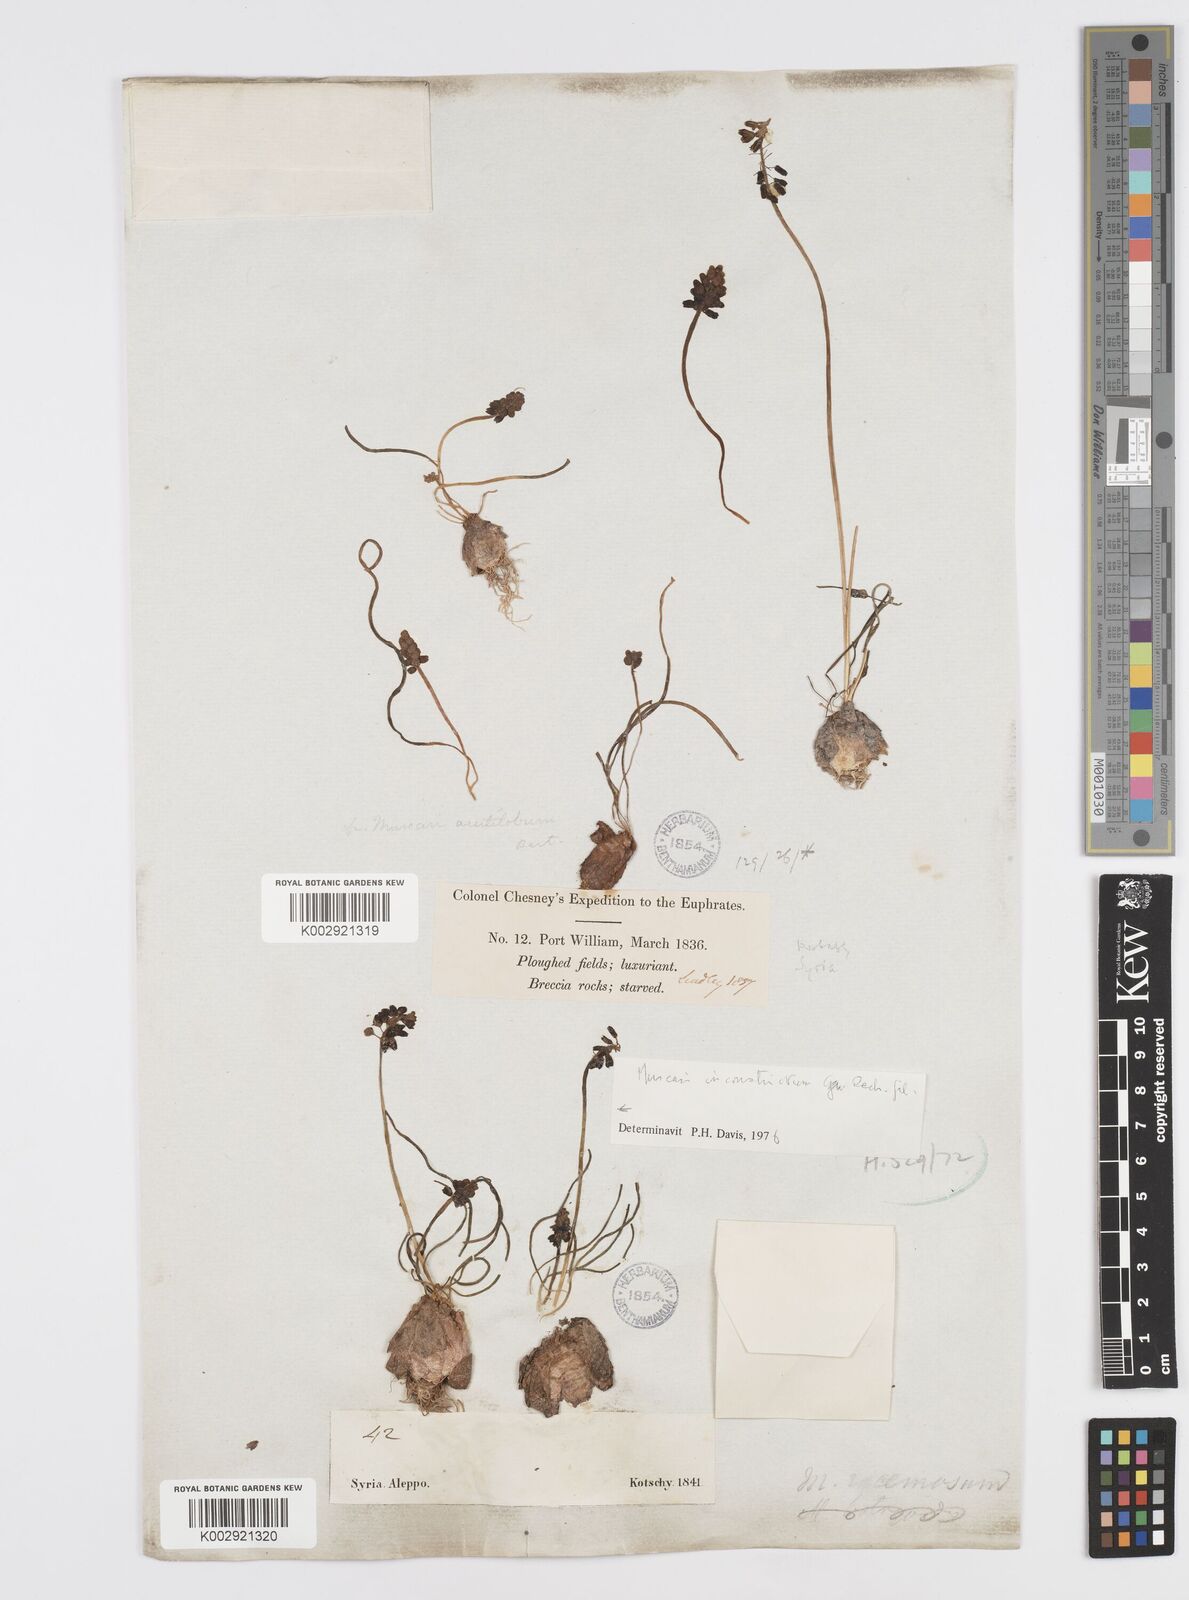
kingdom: Plantae
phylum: Tracheophyta
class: Liliopsida
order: Asparagales
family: Asparagaceae
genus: Muscari
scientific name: Muscari inconstrictum
